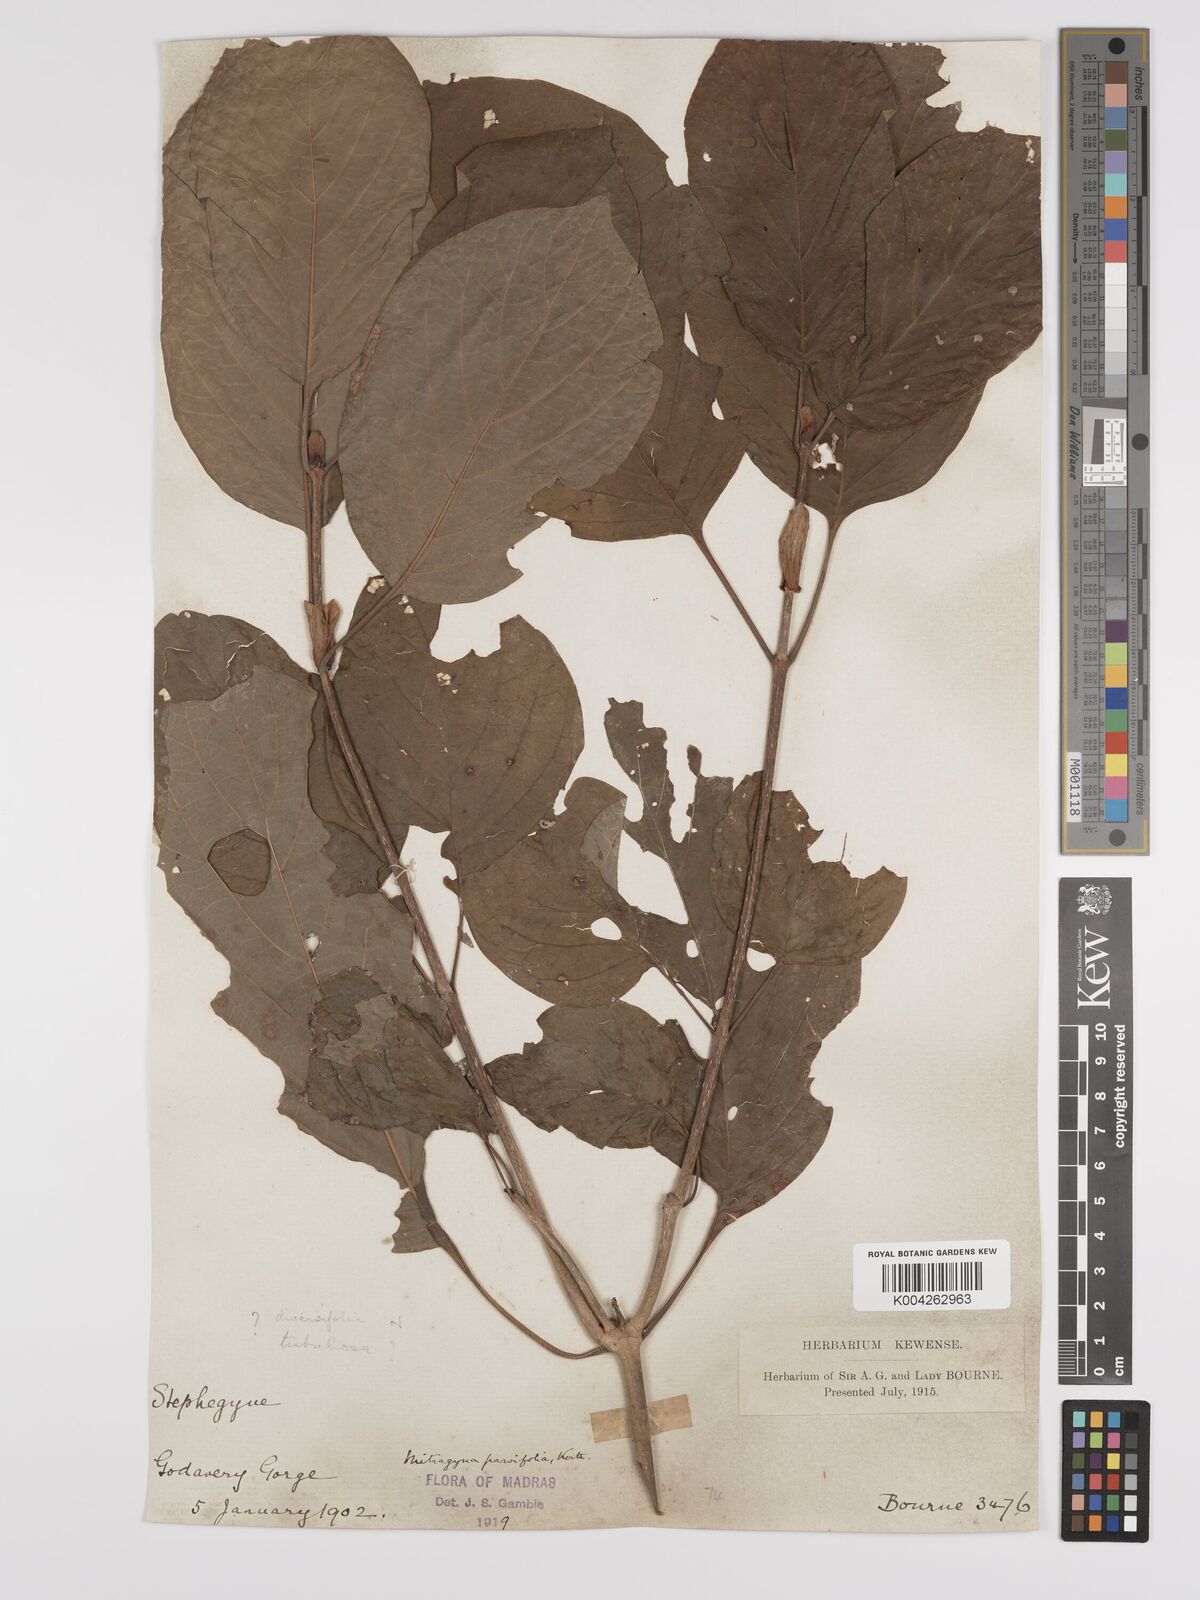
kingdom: Plantae
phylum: Tracheophyta
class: Magnoliopsida
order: Gentianales
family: Rubiaceae
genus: Mitragyna
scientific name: Mitragyna parvifolia
